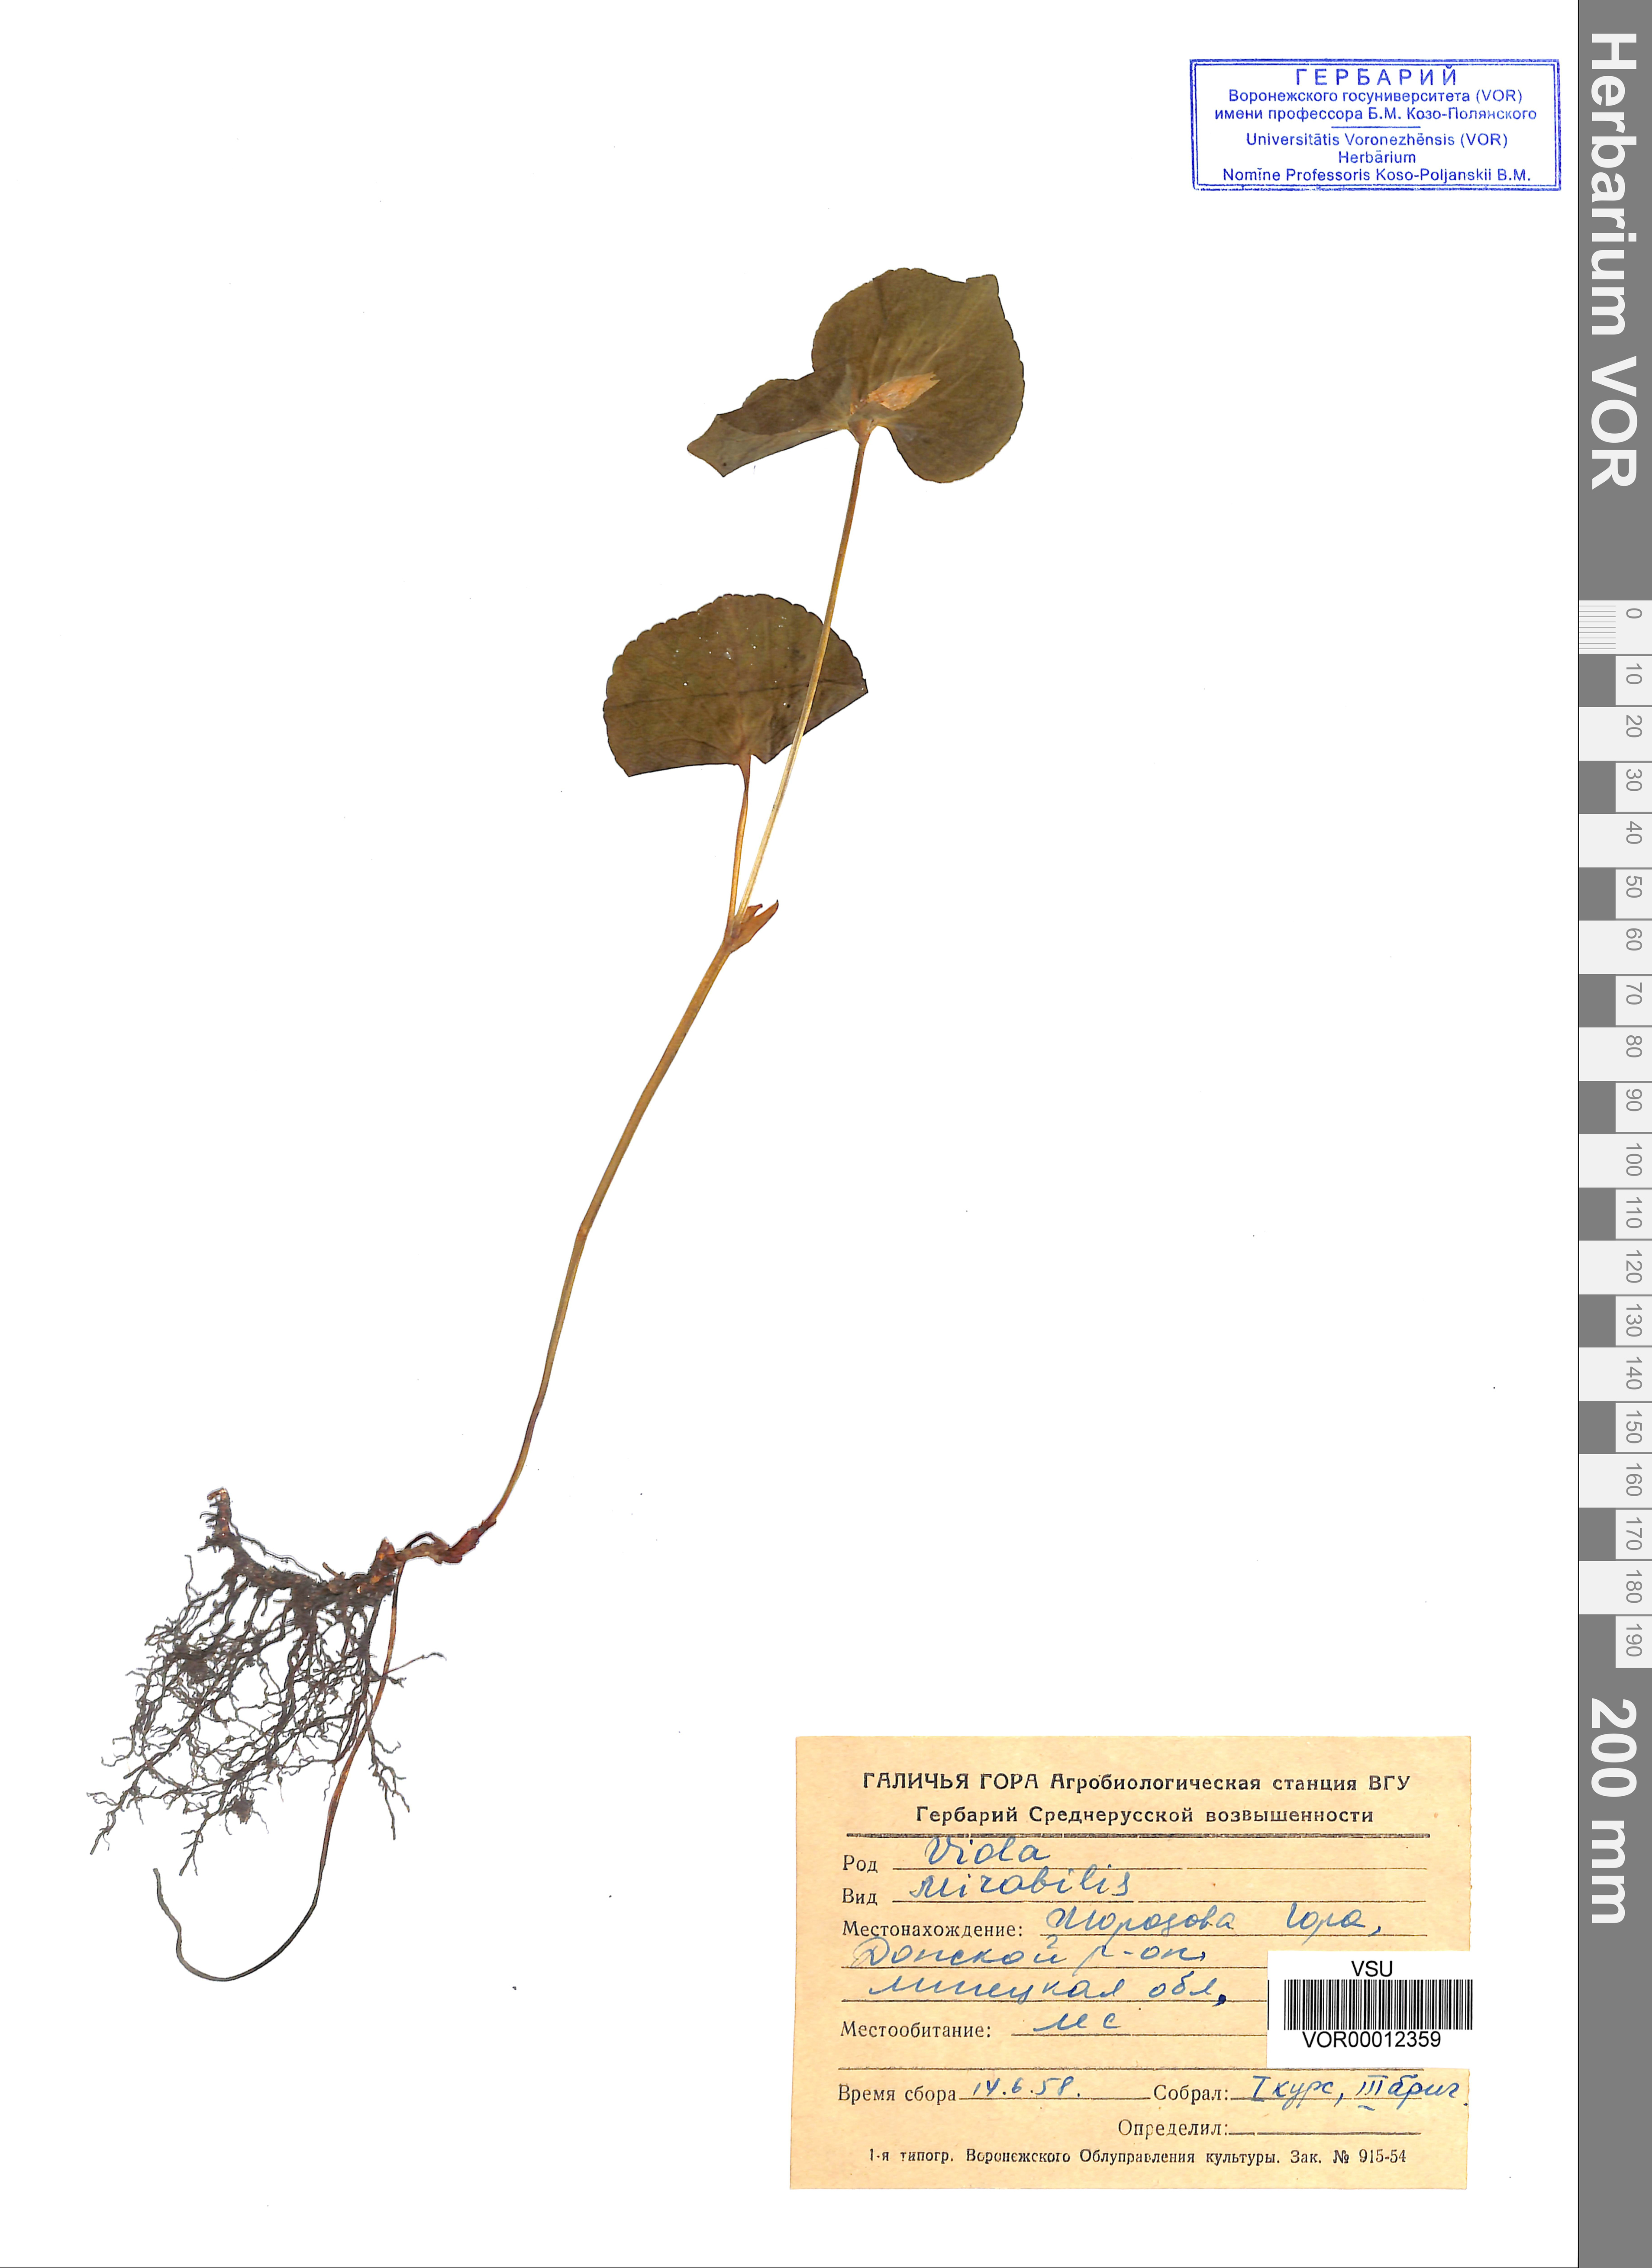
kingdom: Plantae
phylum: Tracheophyta
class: Magnoliopsida
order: Malpighiales
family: Violaceae
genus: Viola
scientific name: Viola mirabilis
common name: Wonder violet
